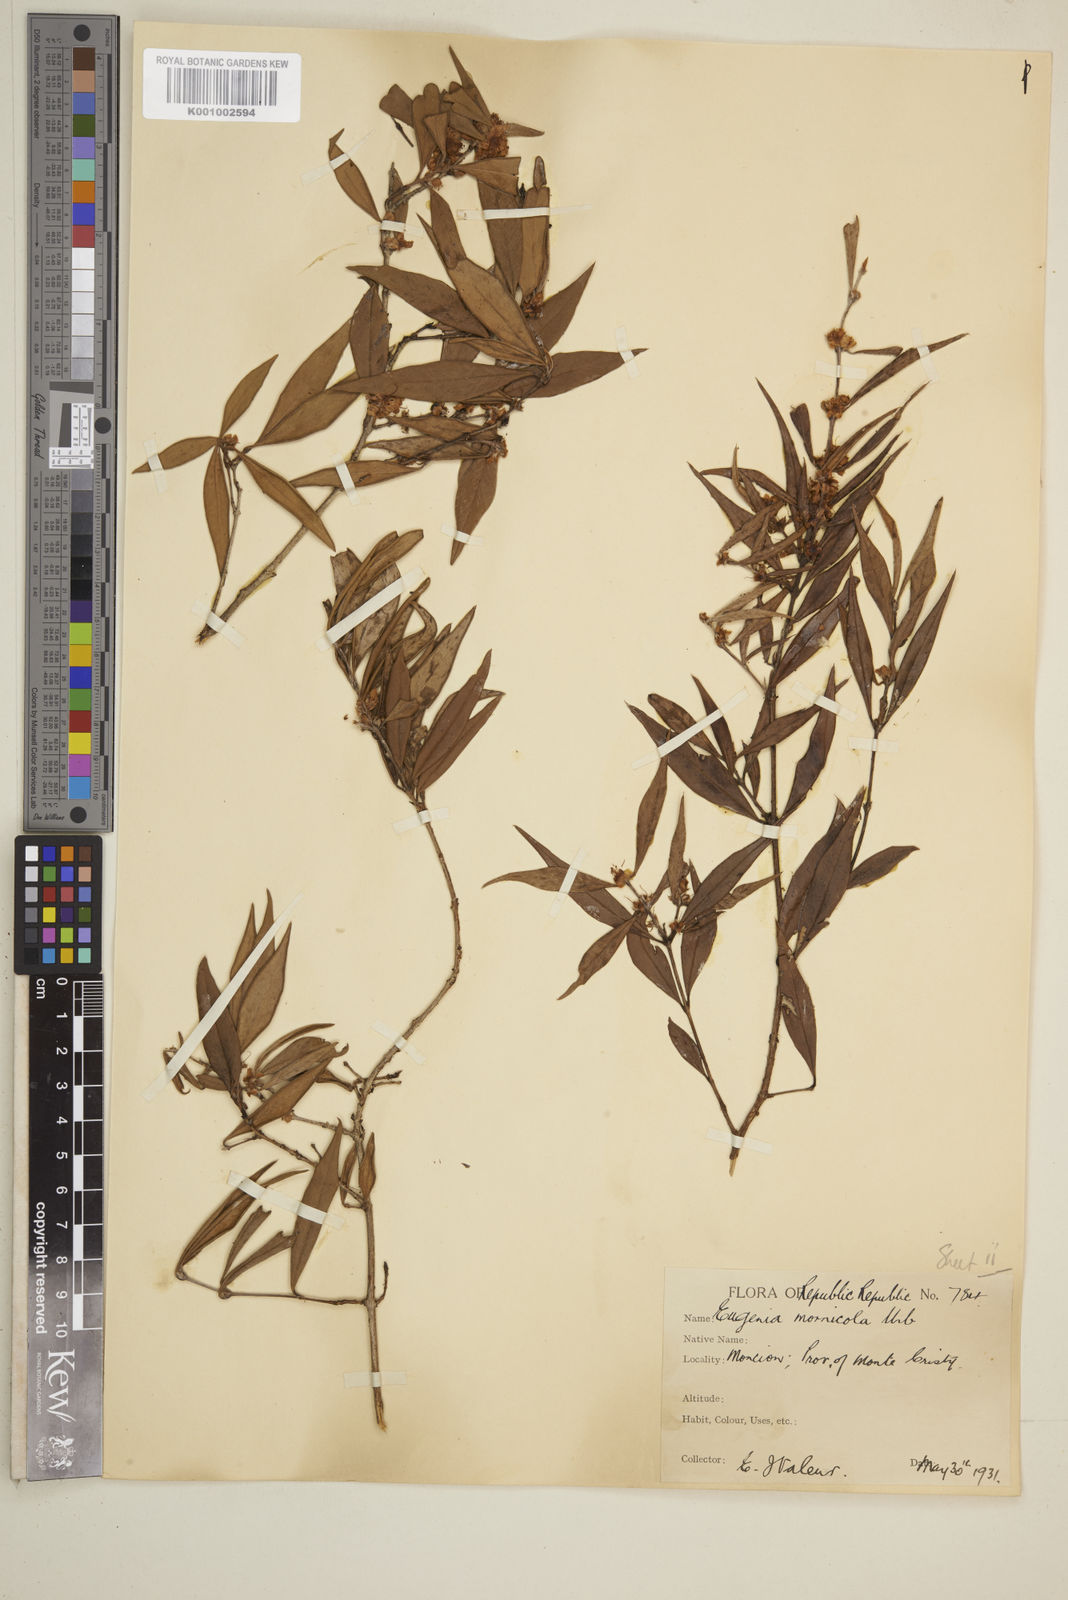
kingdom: Plantae
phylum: Tracheophyta
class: Magnoliopsida
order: Myrtales
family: Myrtaceae
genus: Eugenia
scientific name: Eugenia isabeliana
